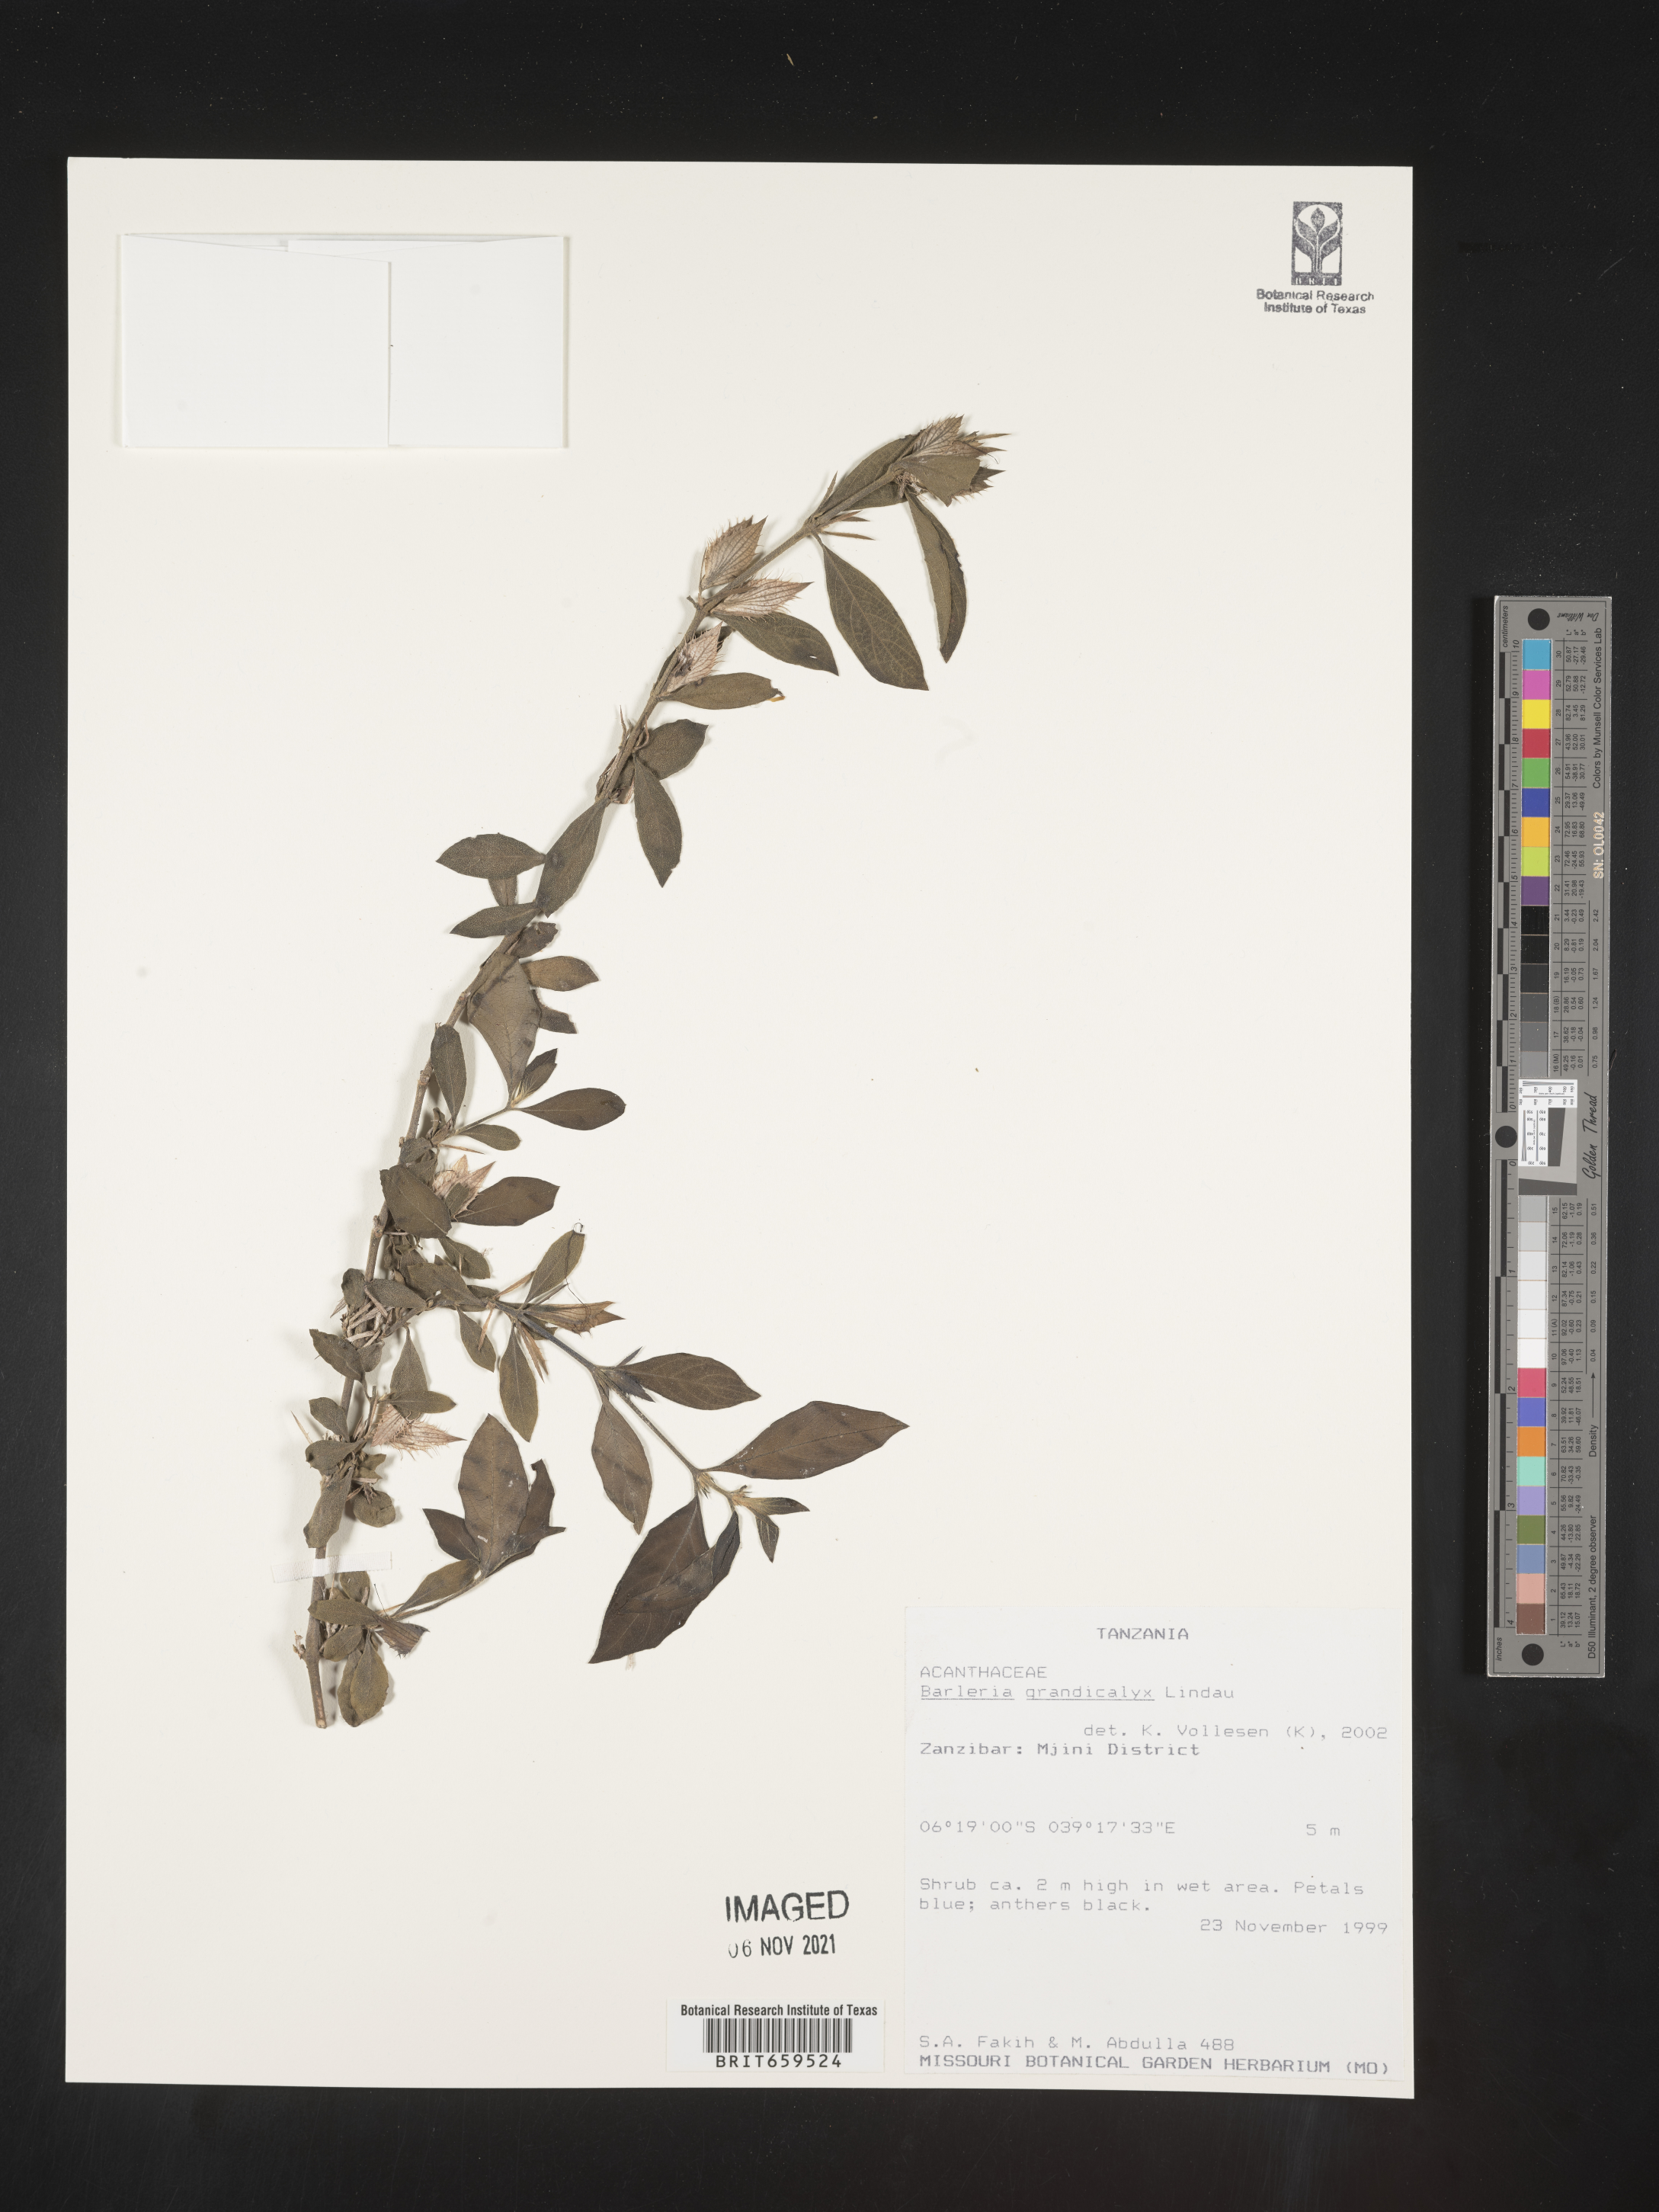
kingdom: Plantae
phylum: Tracheophyta
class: Magnoliopsida
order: Lamiales
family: Acanthaceae
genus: Barleria
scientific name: Barleria grandicalyx
